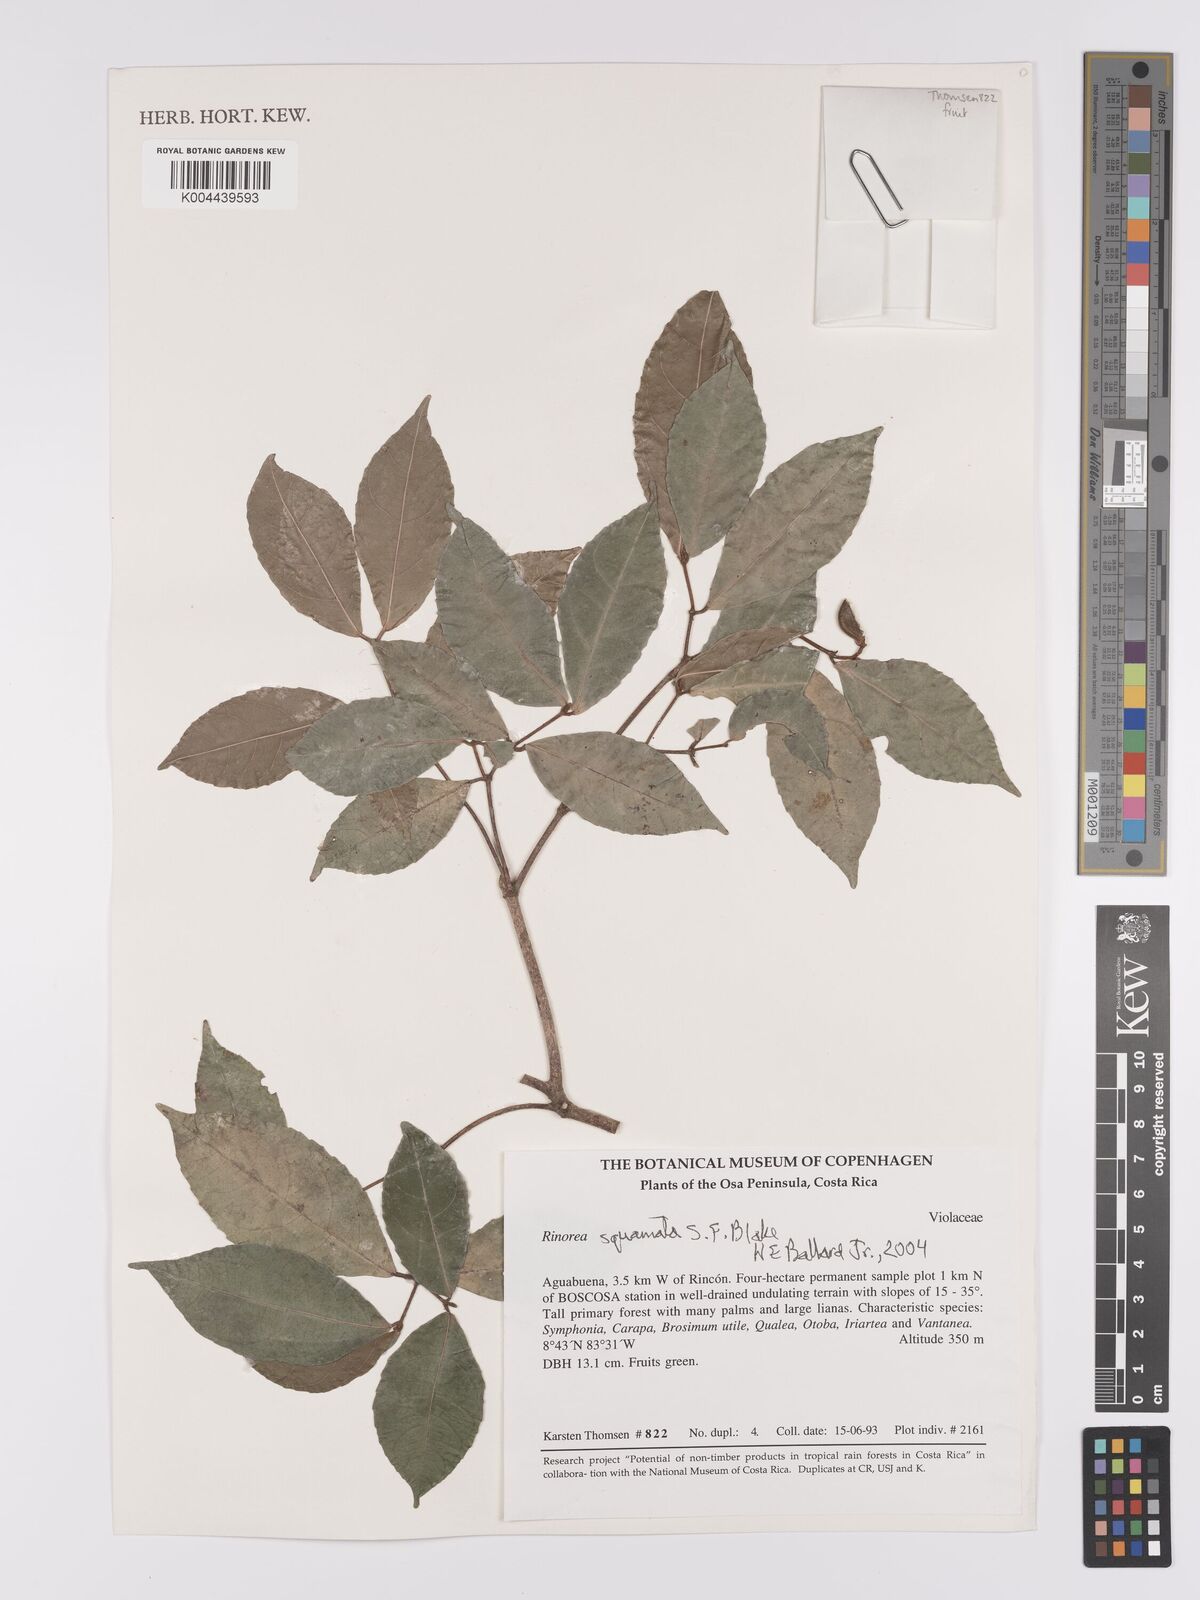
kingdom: Plantae
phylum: Tracheophyta
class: Magnoliopsida
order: Malpighiales
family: Violaceae
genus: Rinorea
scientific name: Rinorea squamata
